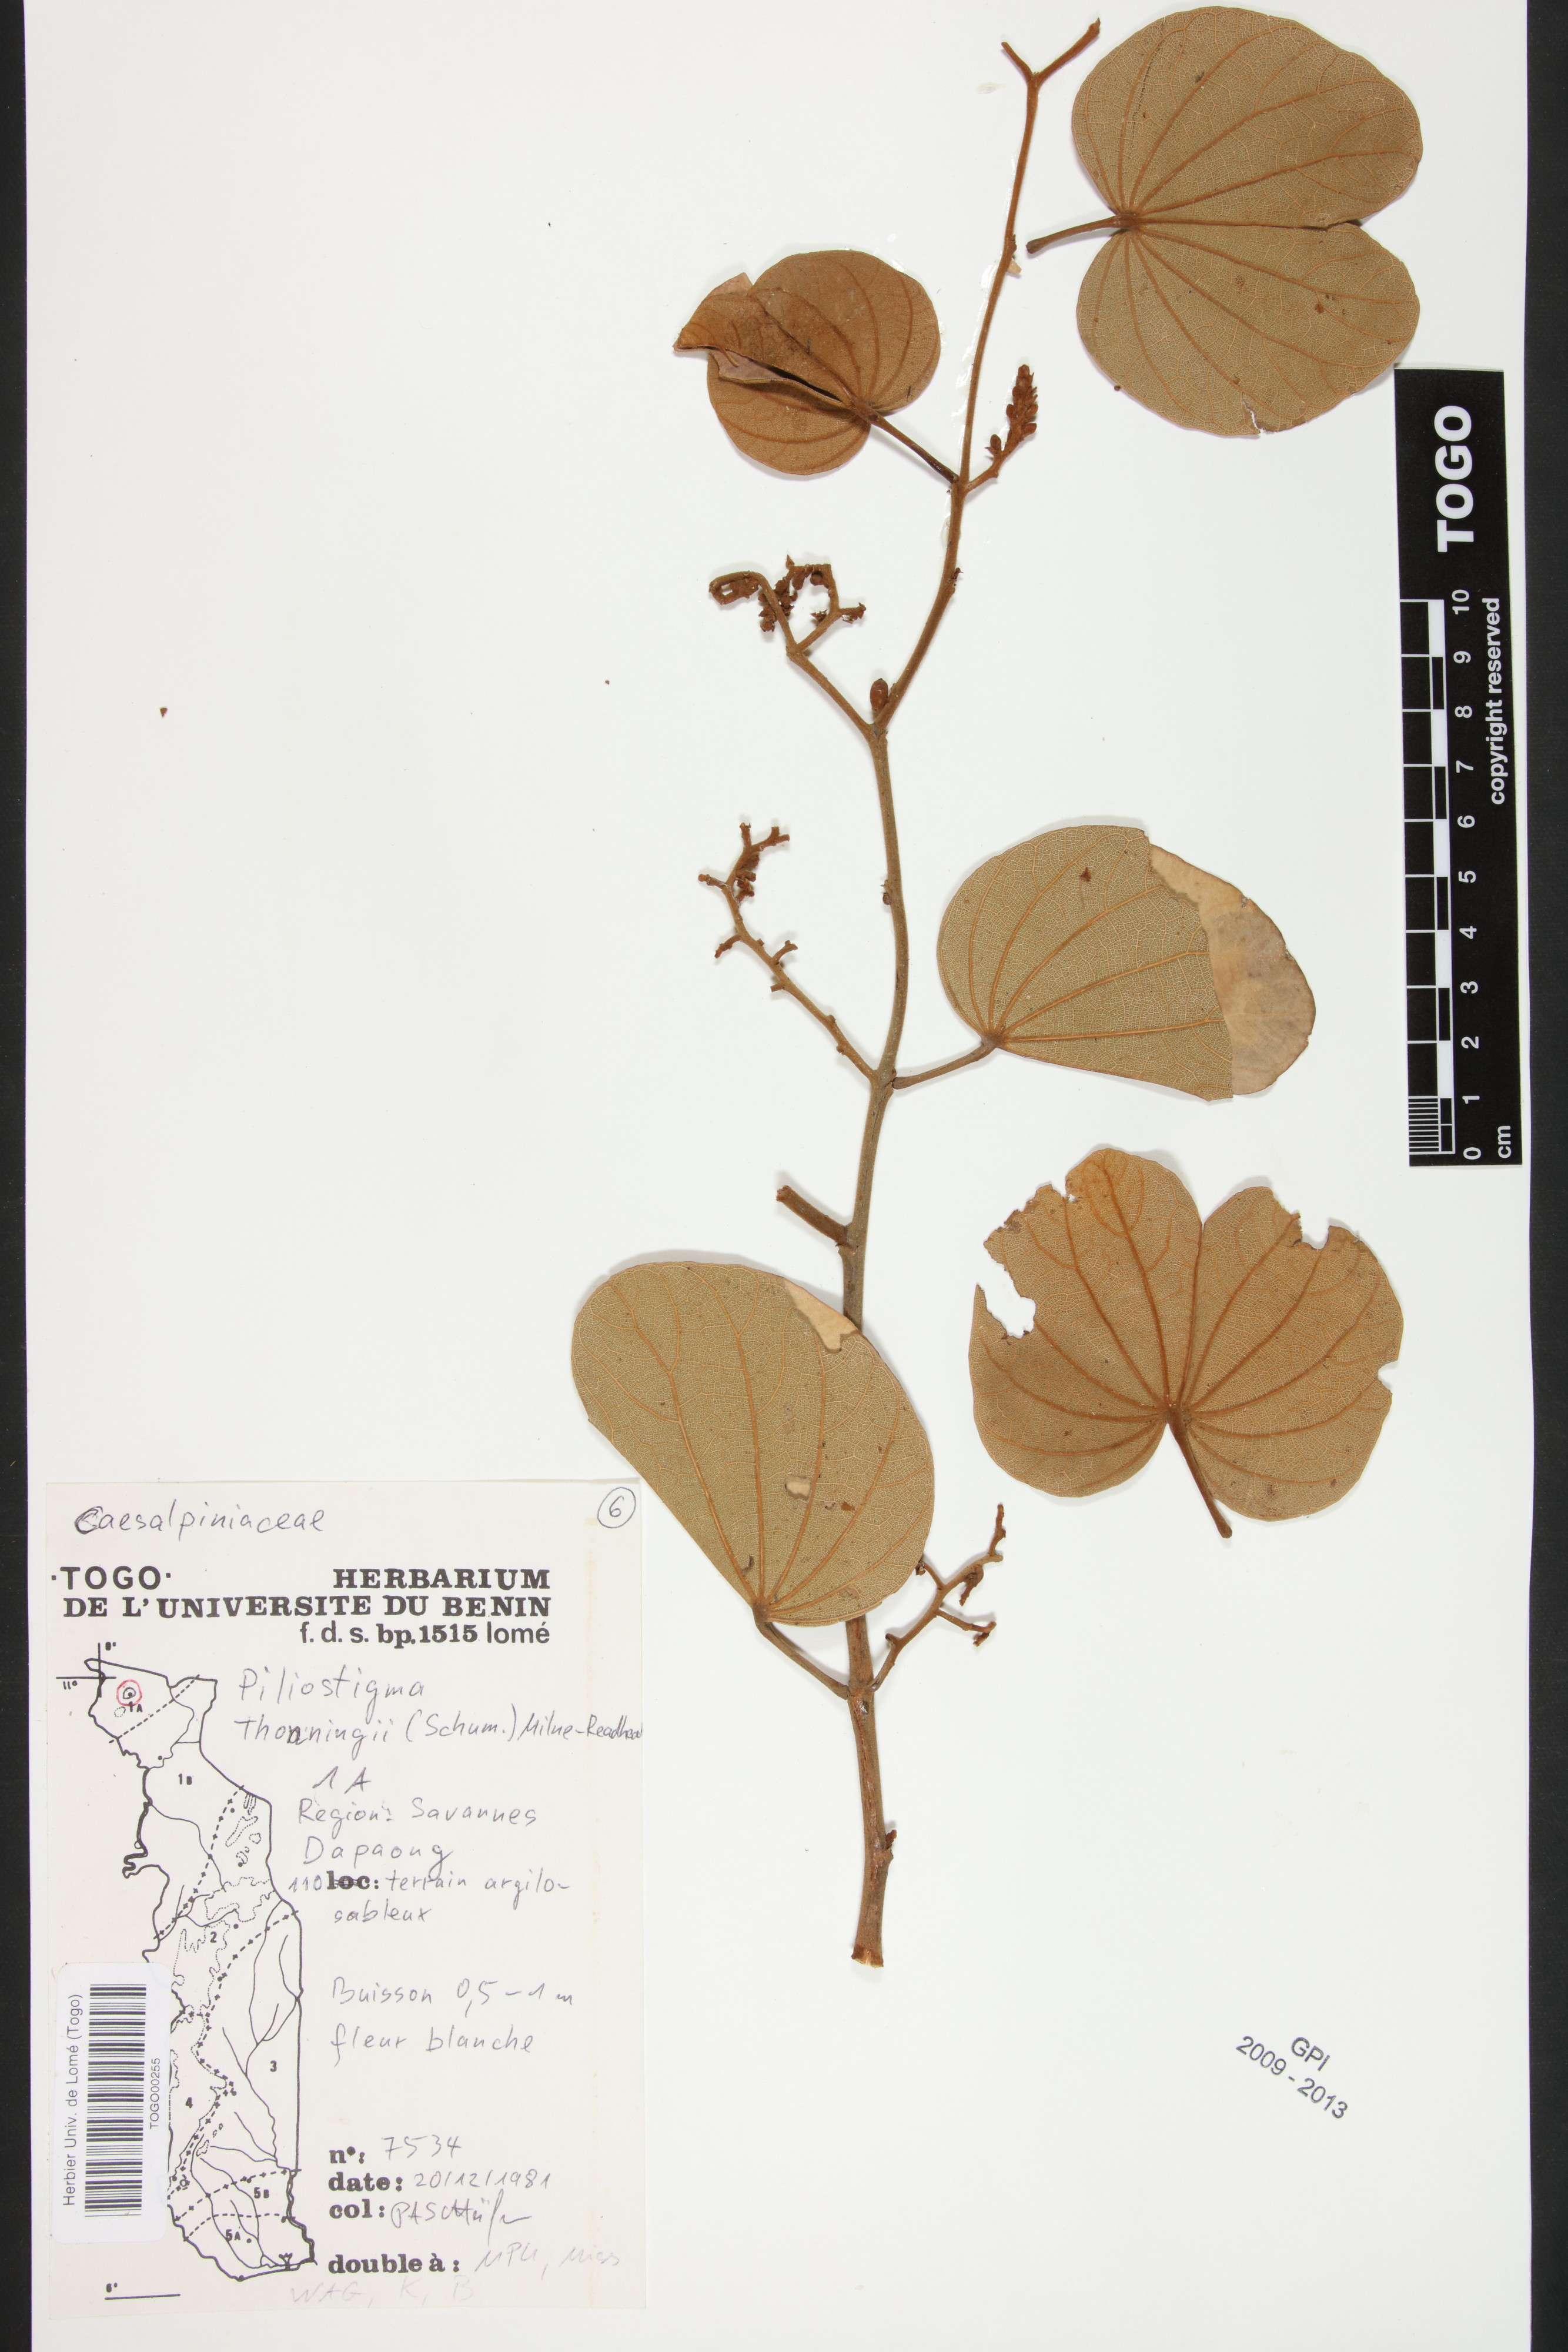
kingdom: Plantae
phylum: Tracheophyta
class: Magnoliopsida
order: Fabales
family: Fabaceae
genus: Piliostigma
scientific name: Piliostigma thonningii
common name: Kao
